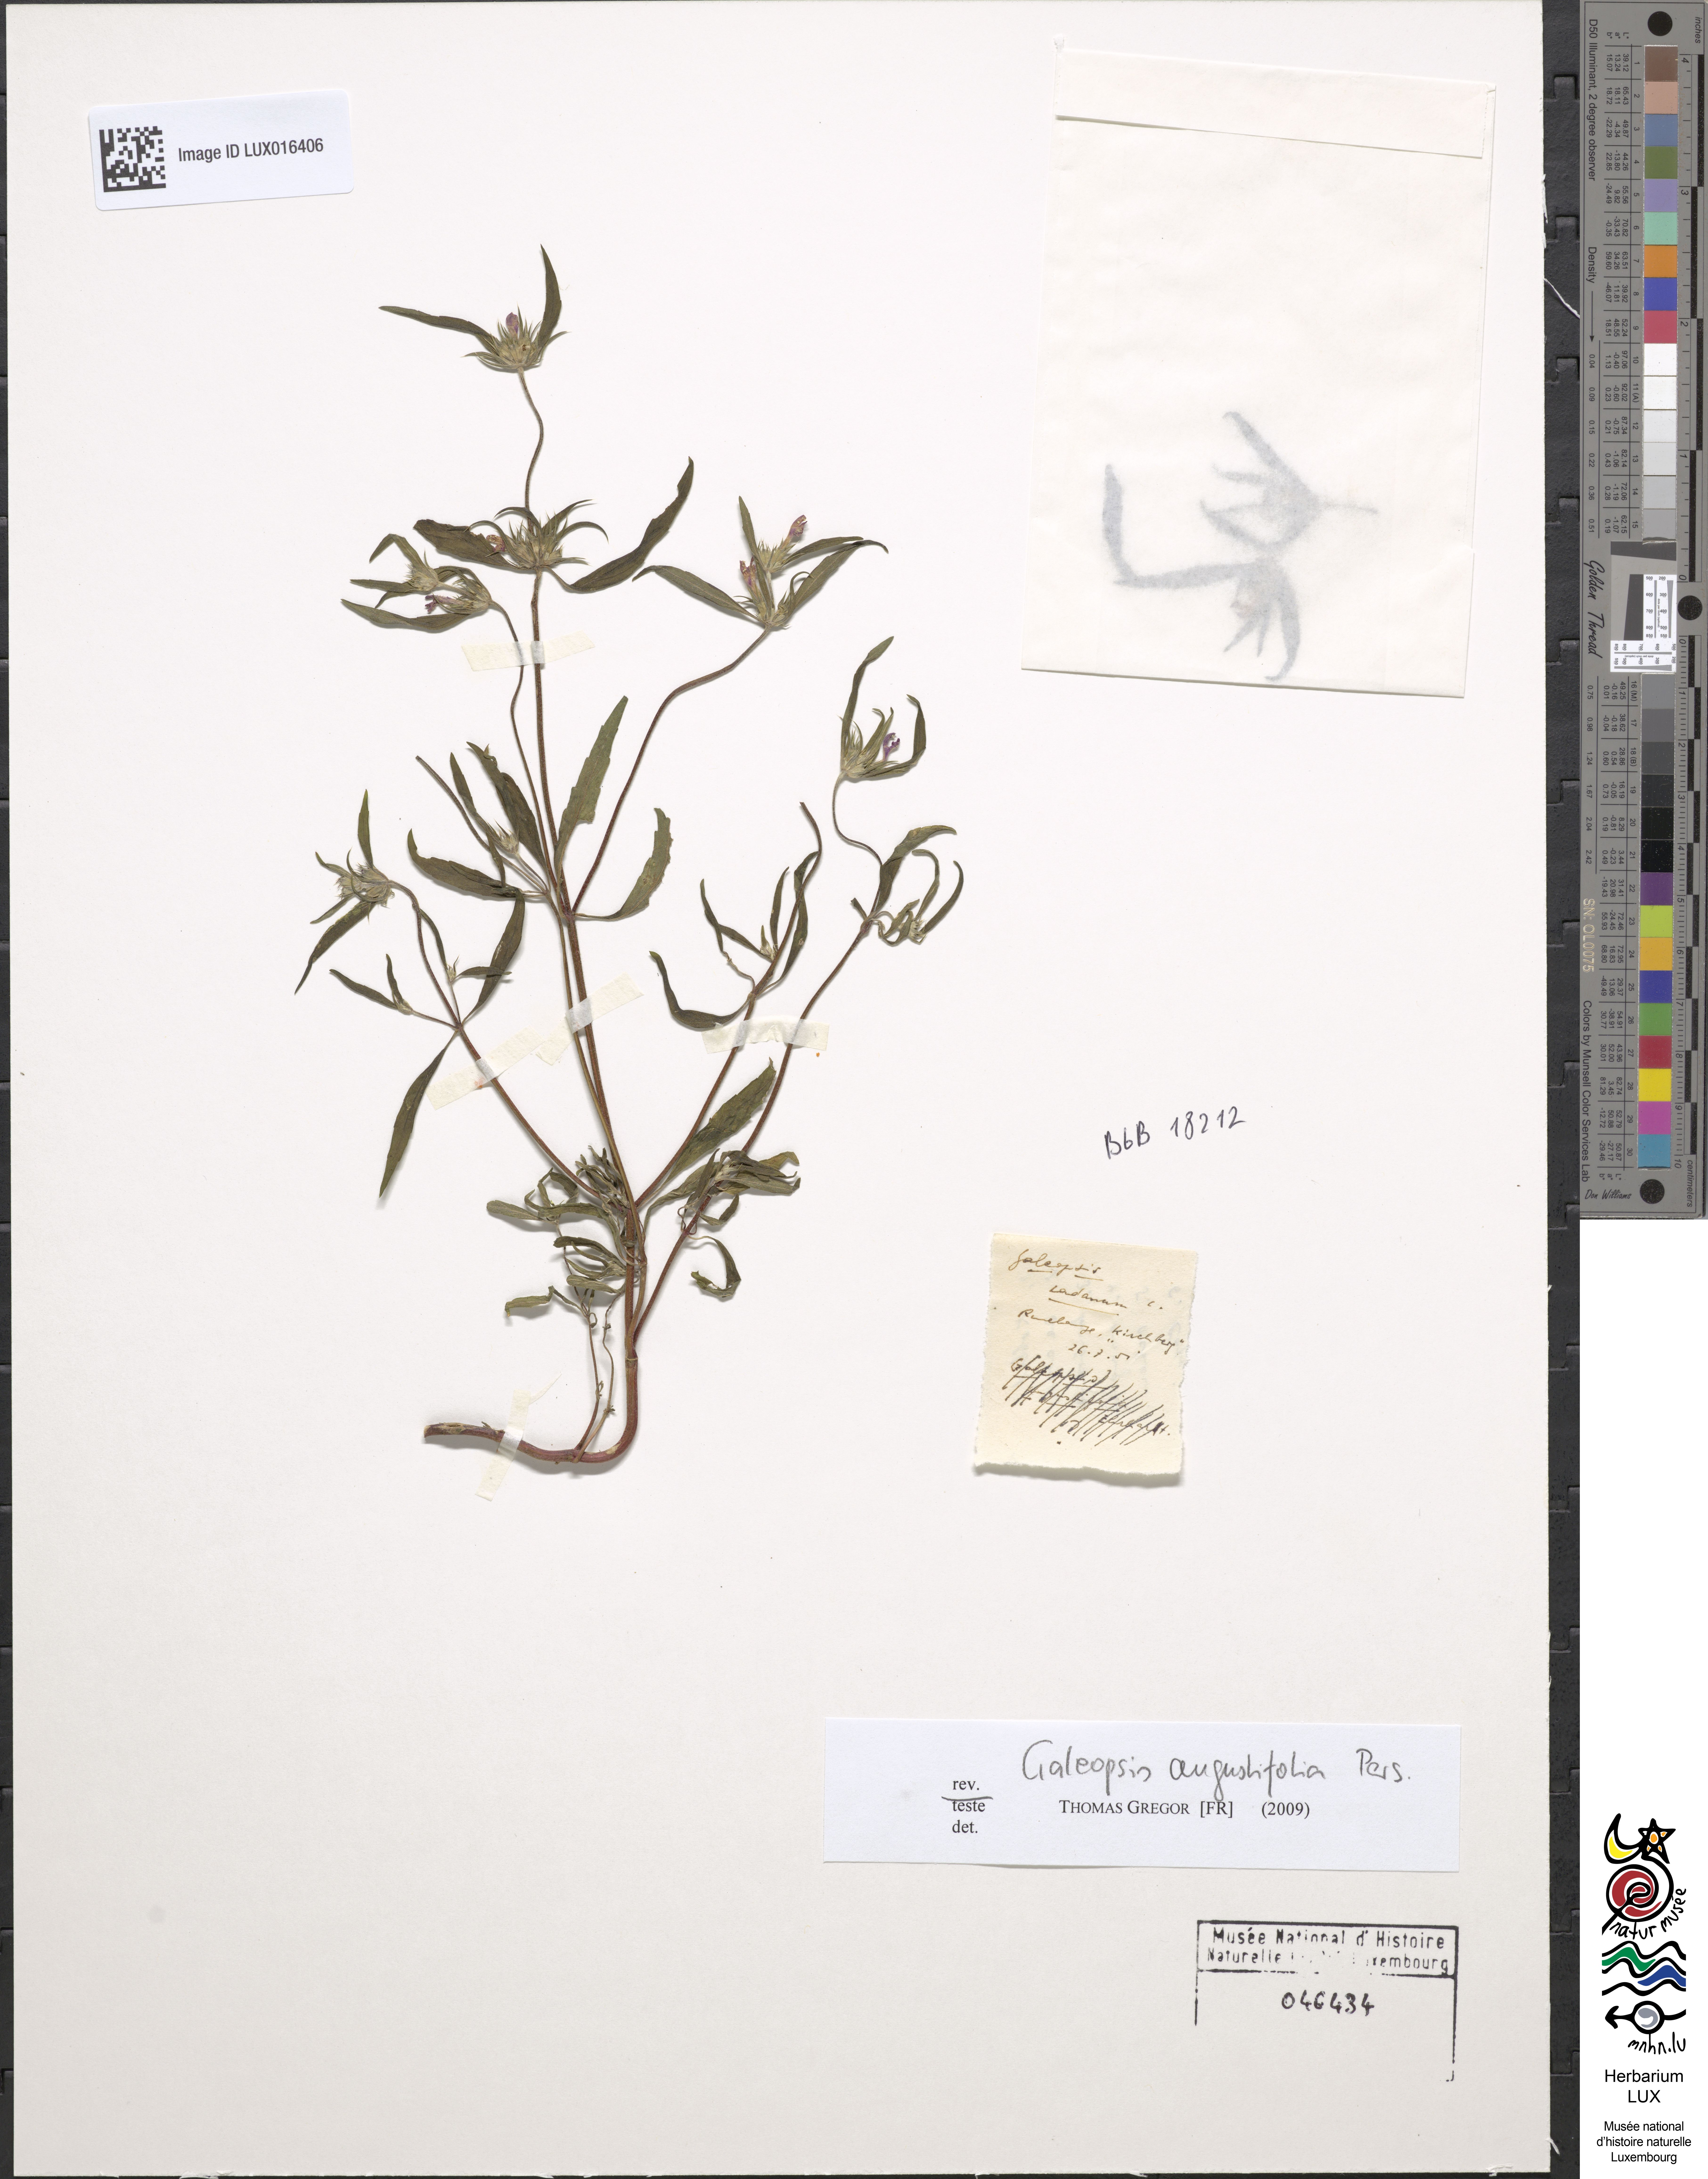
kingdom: Plantae
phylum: Tracheophyta
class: Magnoliopsida
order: Lamiales
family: Lamiaceae
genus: Galeopsis
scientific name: Galeopsis angustifolia
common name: Red hemp-nettle
